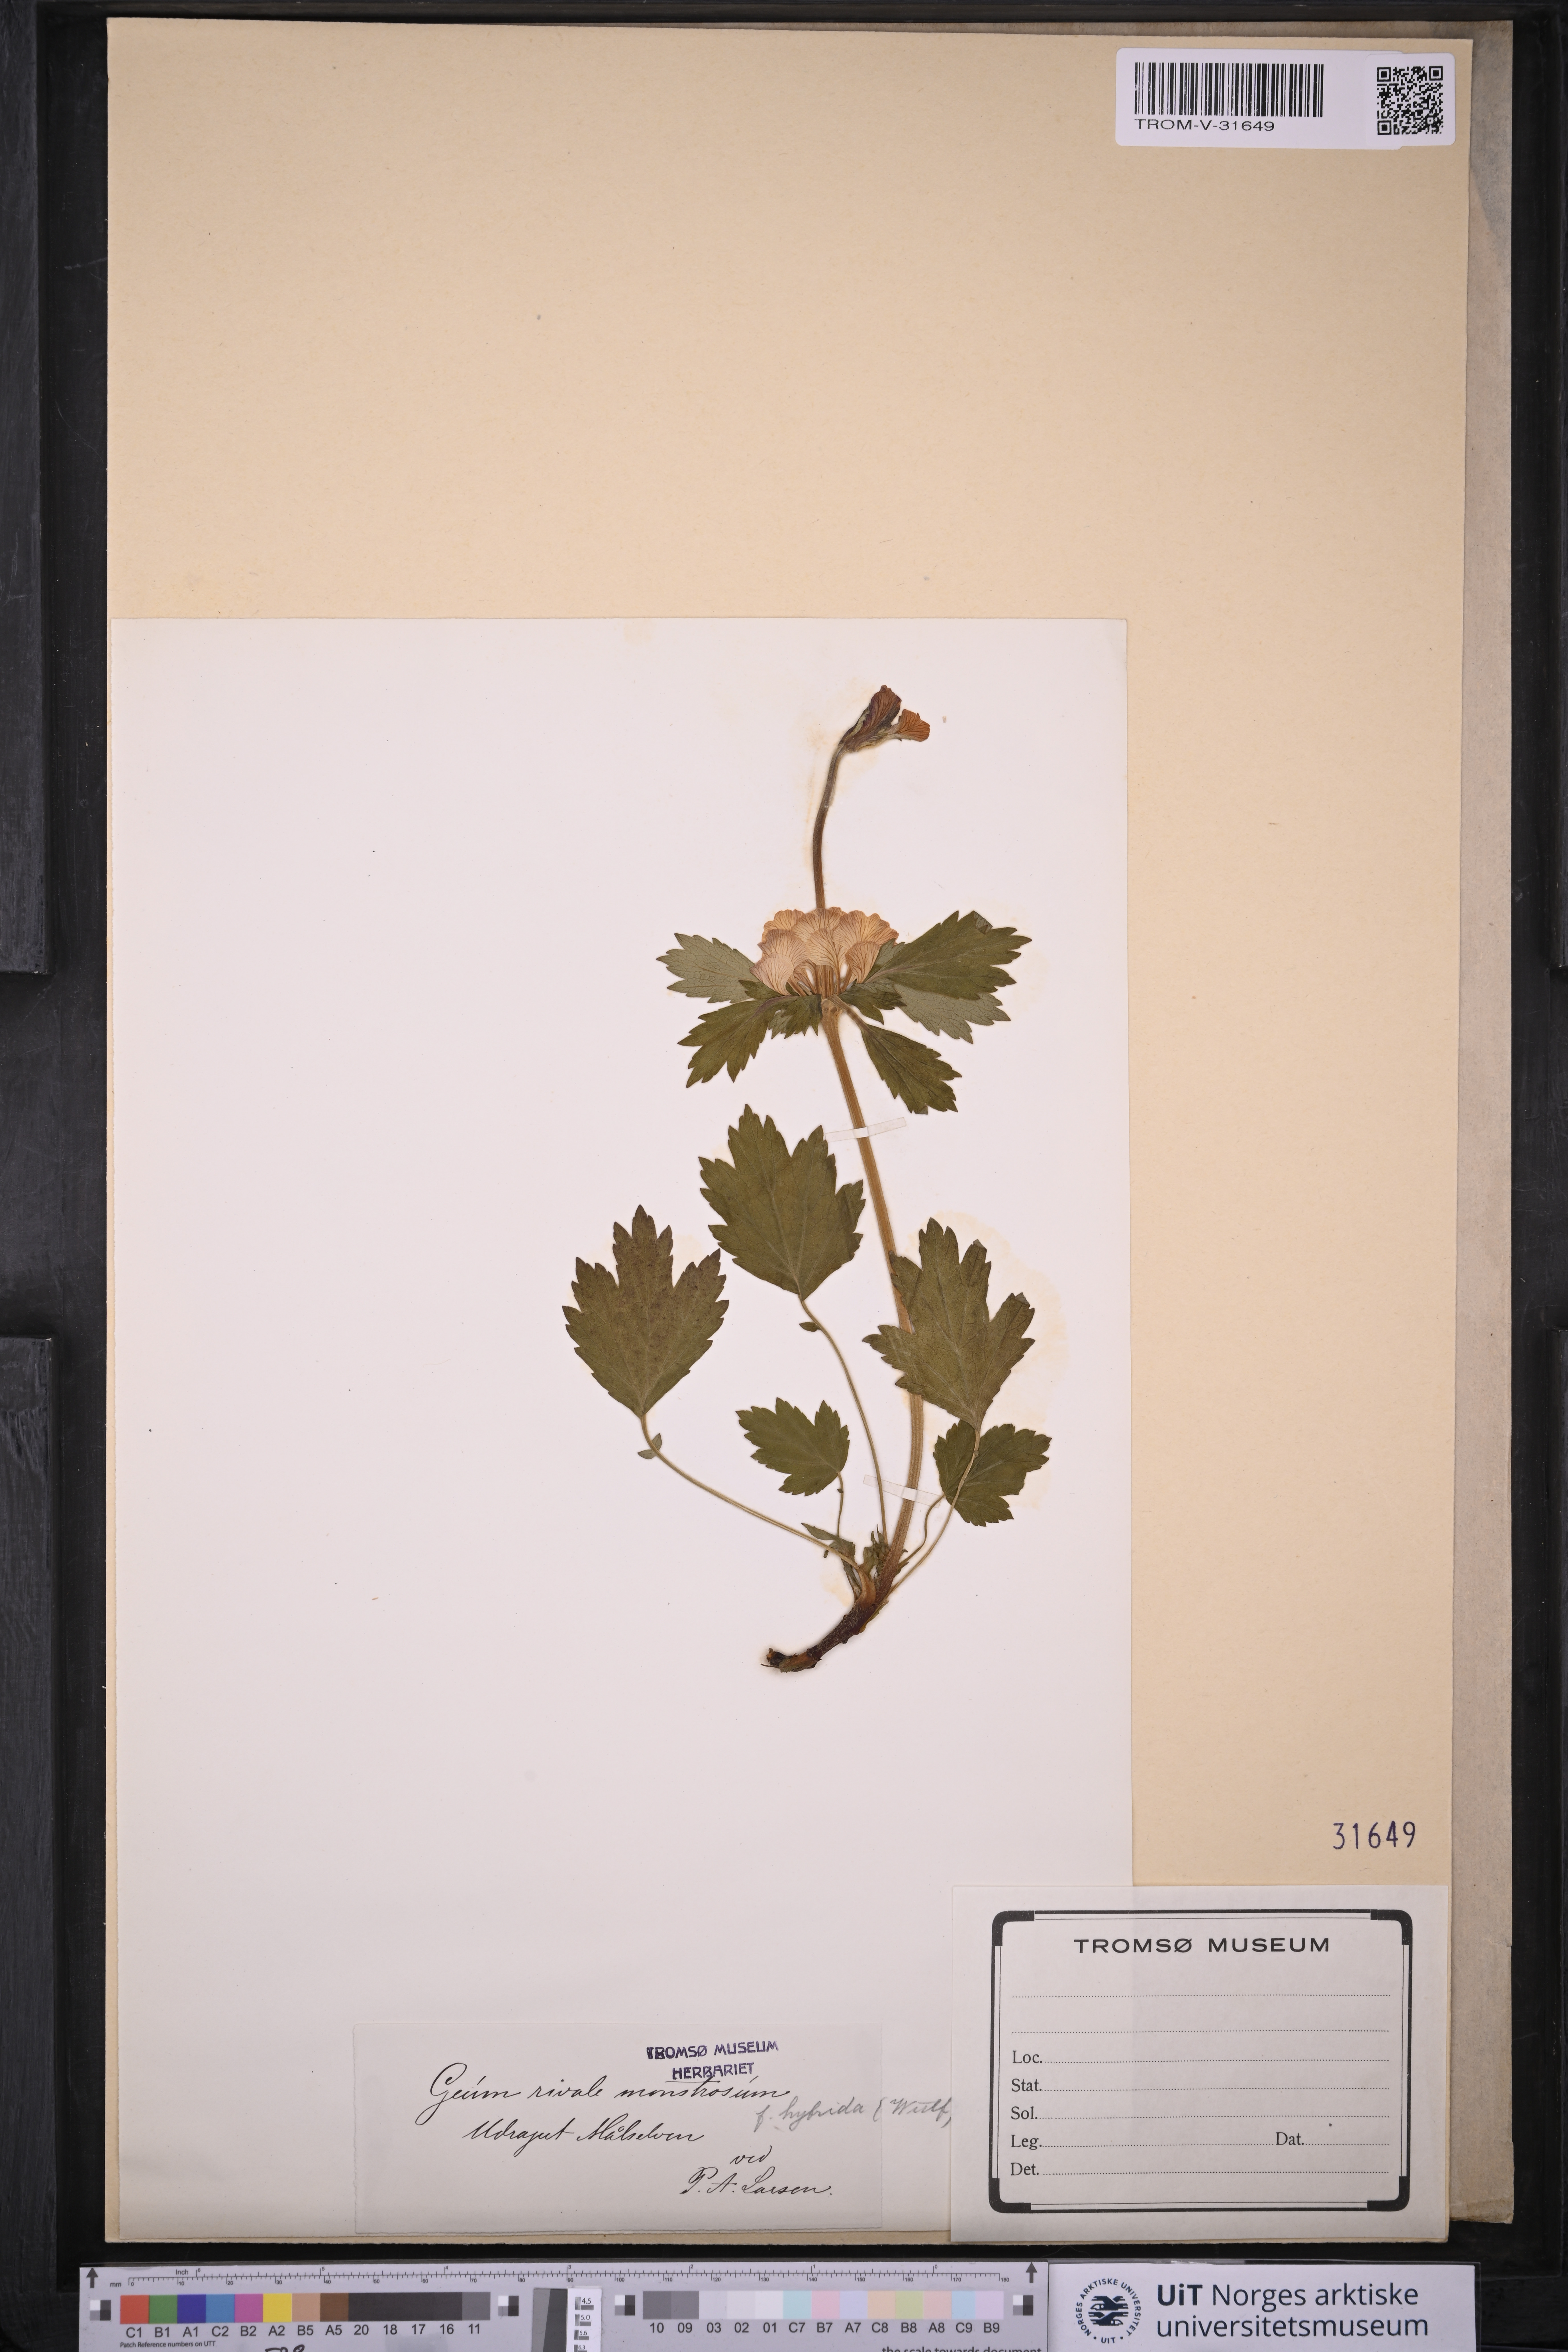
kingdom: Plantae
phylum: Tracheophyta
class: Magnoliopsida
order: Rosales
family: Rosaceae
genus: Geum
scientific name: Geum rivale
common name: Water avens
